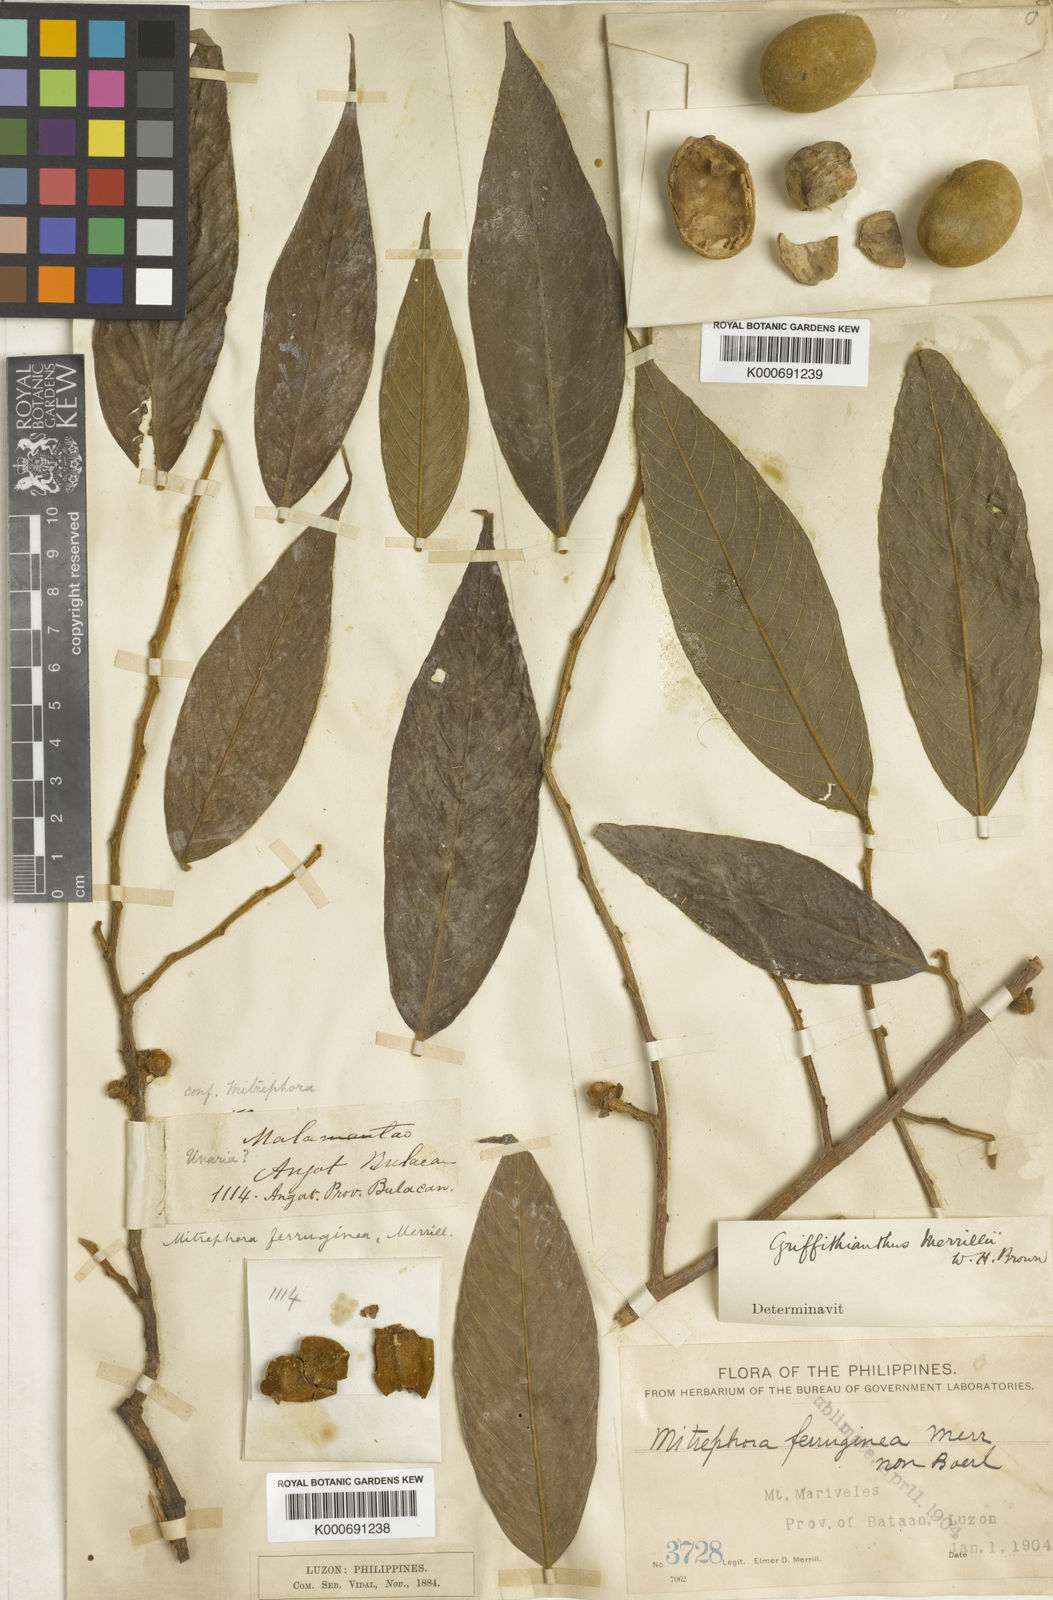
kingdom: Plantae
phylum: Tracheophyta
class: Magnoliopsida
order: Magnoliales
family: Annonaceae
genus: Neouvaria
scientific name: Neouvaria acuminatissima
